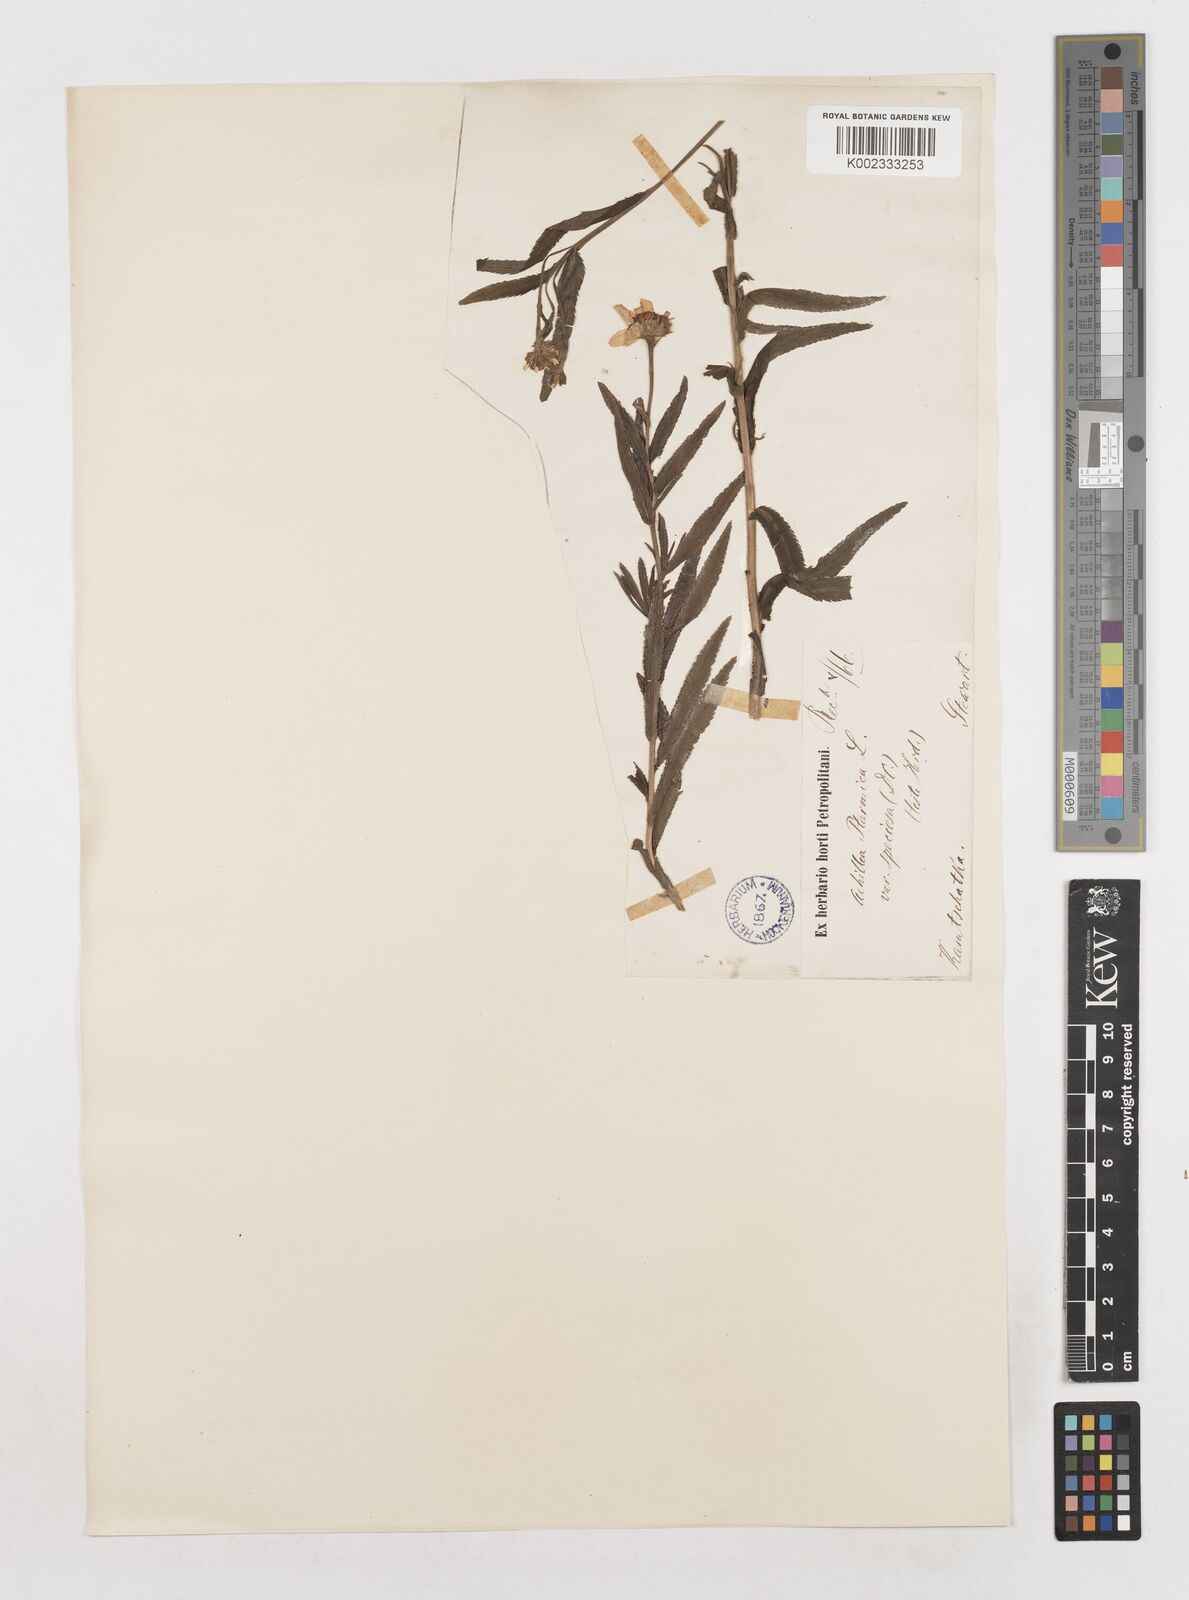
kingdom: Plantae
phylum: Tracheophyta
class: Magnoliopsida
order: Asterales
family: Asteraceae
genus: Achillea
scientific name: Achillea ptarmica
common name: Sneezeweed
